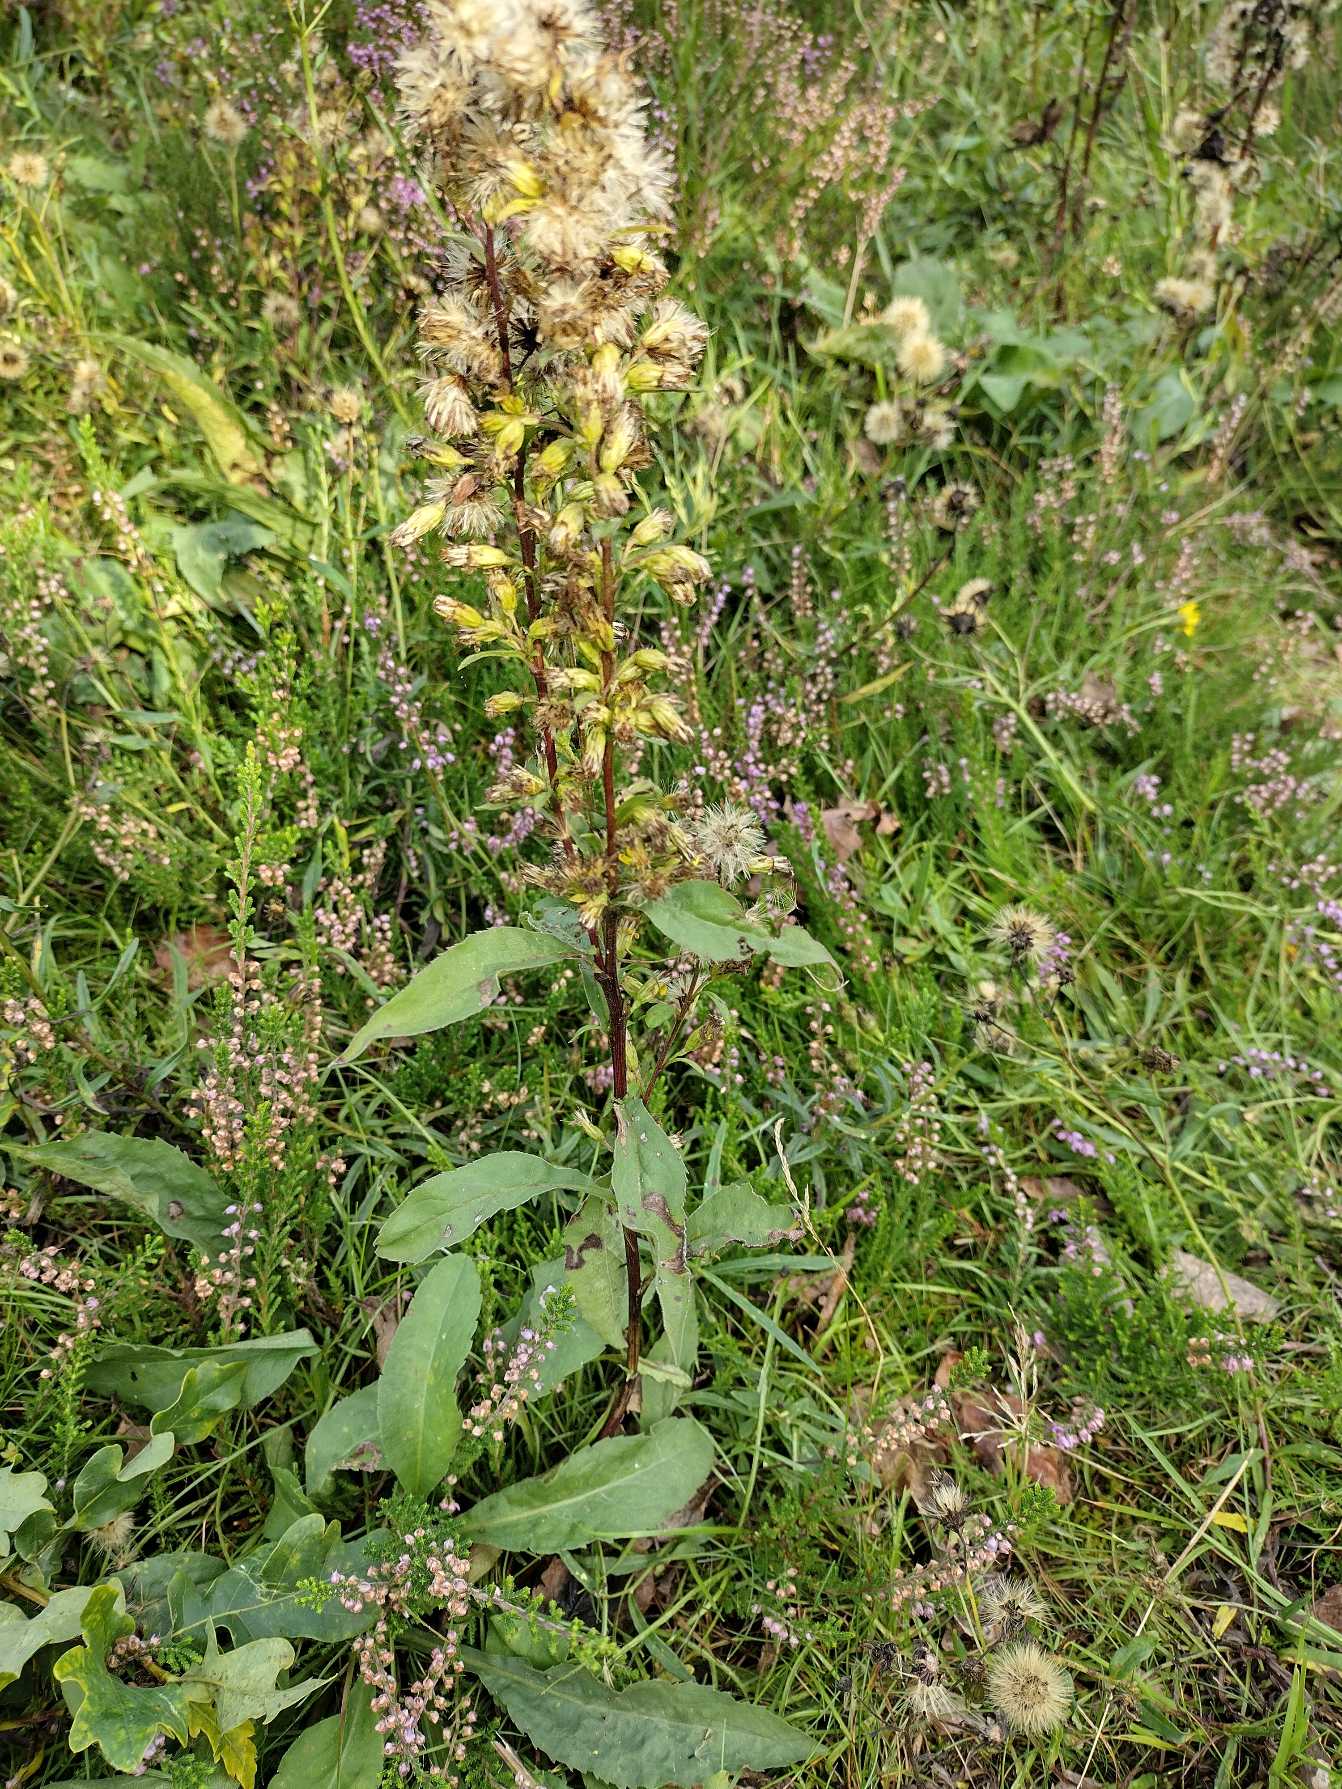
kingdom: Plantae
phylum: Tracheophyta
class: Magnoliopsida
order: Asterales
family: Asteraceae
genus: Solidago
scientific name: Solidago virgaurea
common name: Almindelig gyldenris
